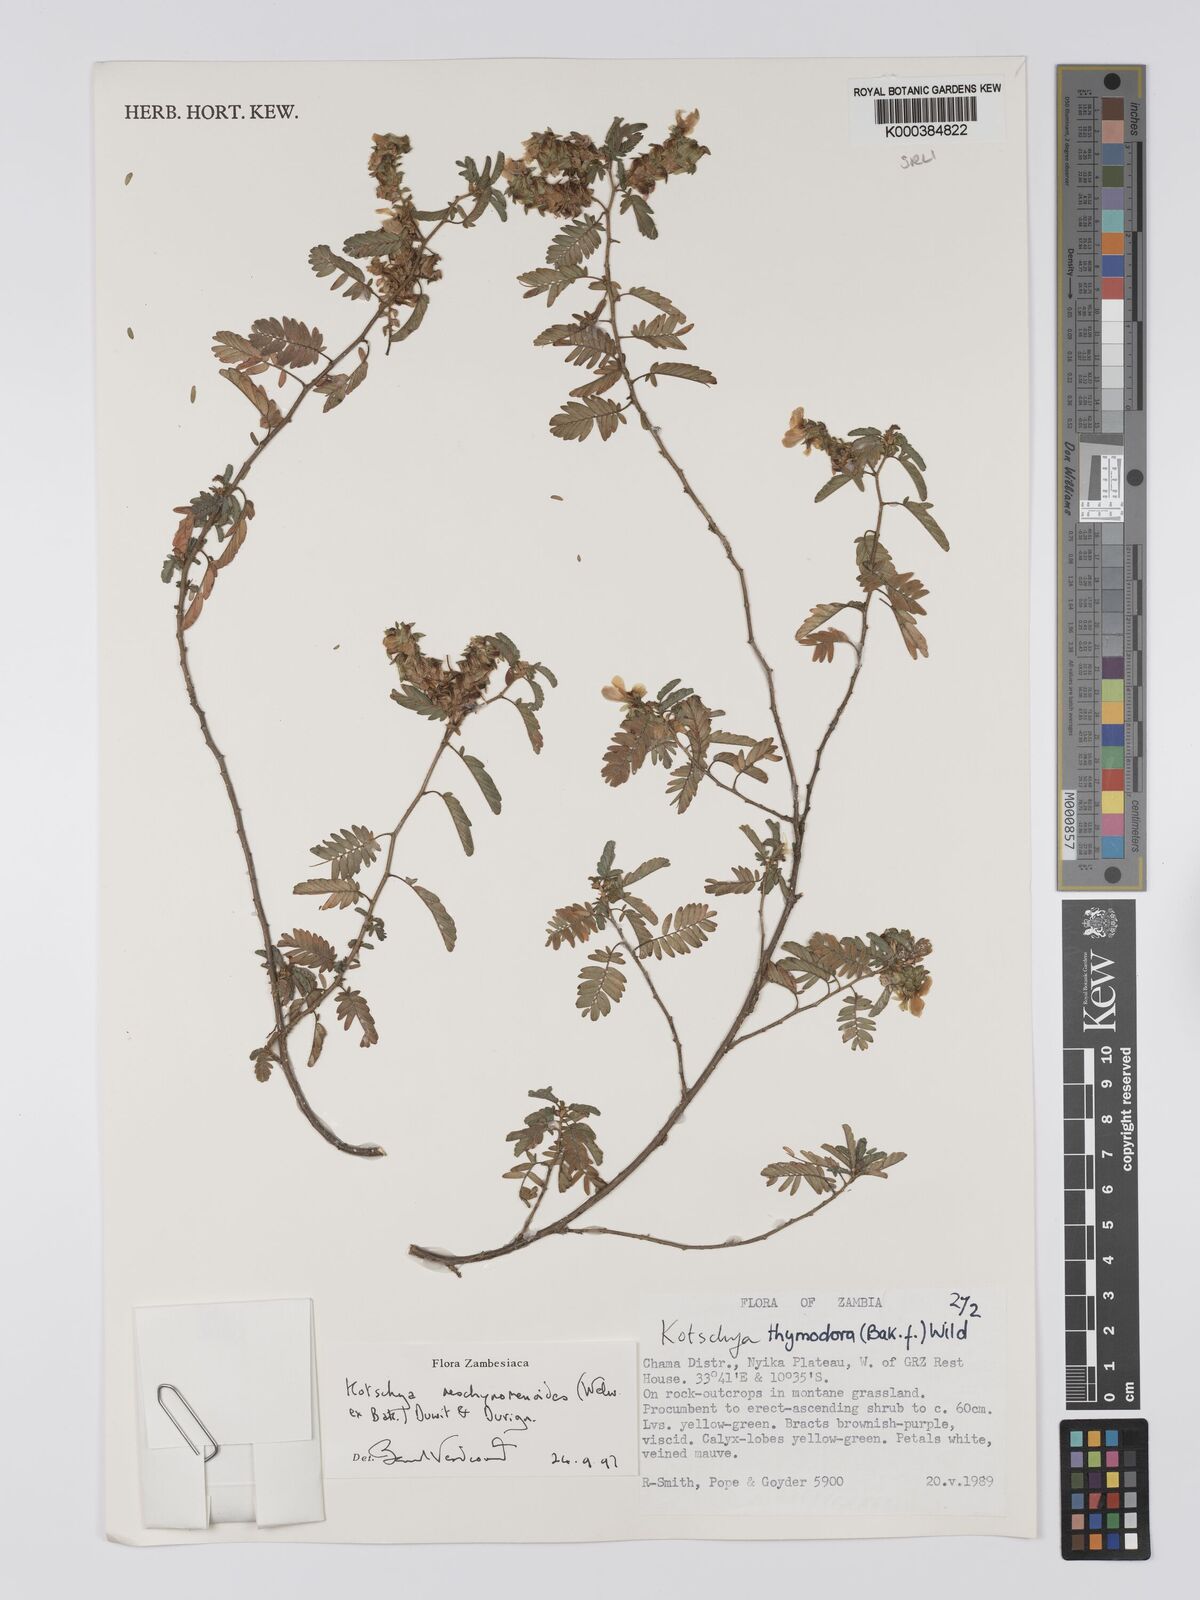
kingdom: Plantae
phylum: Tracheophyta
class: Magnoliopsida
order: Fabales
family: Fabaceae
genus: Kotschya
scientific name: Kotschya aeschynomenoides
